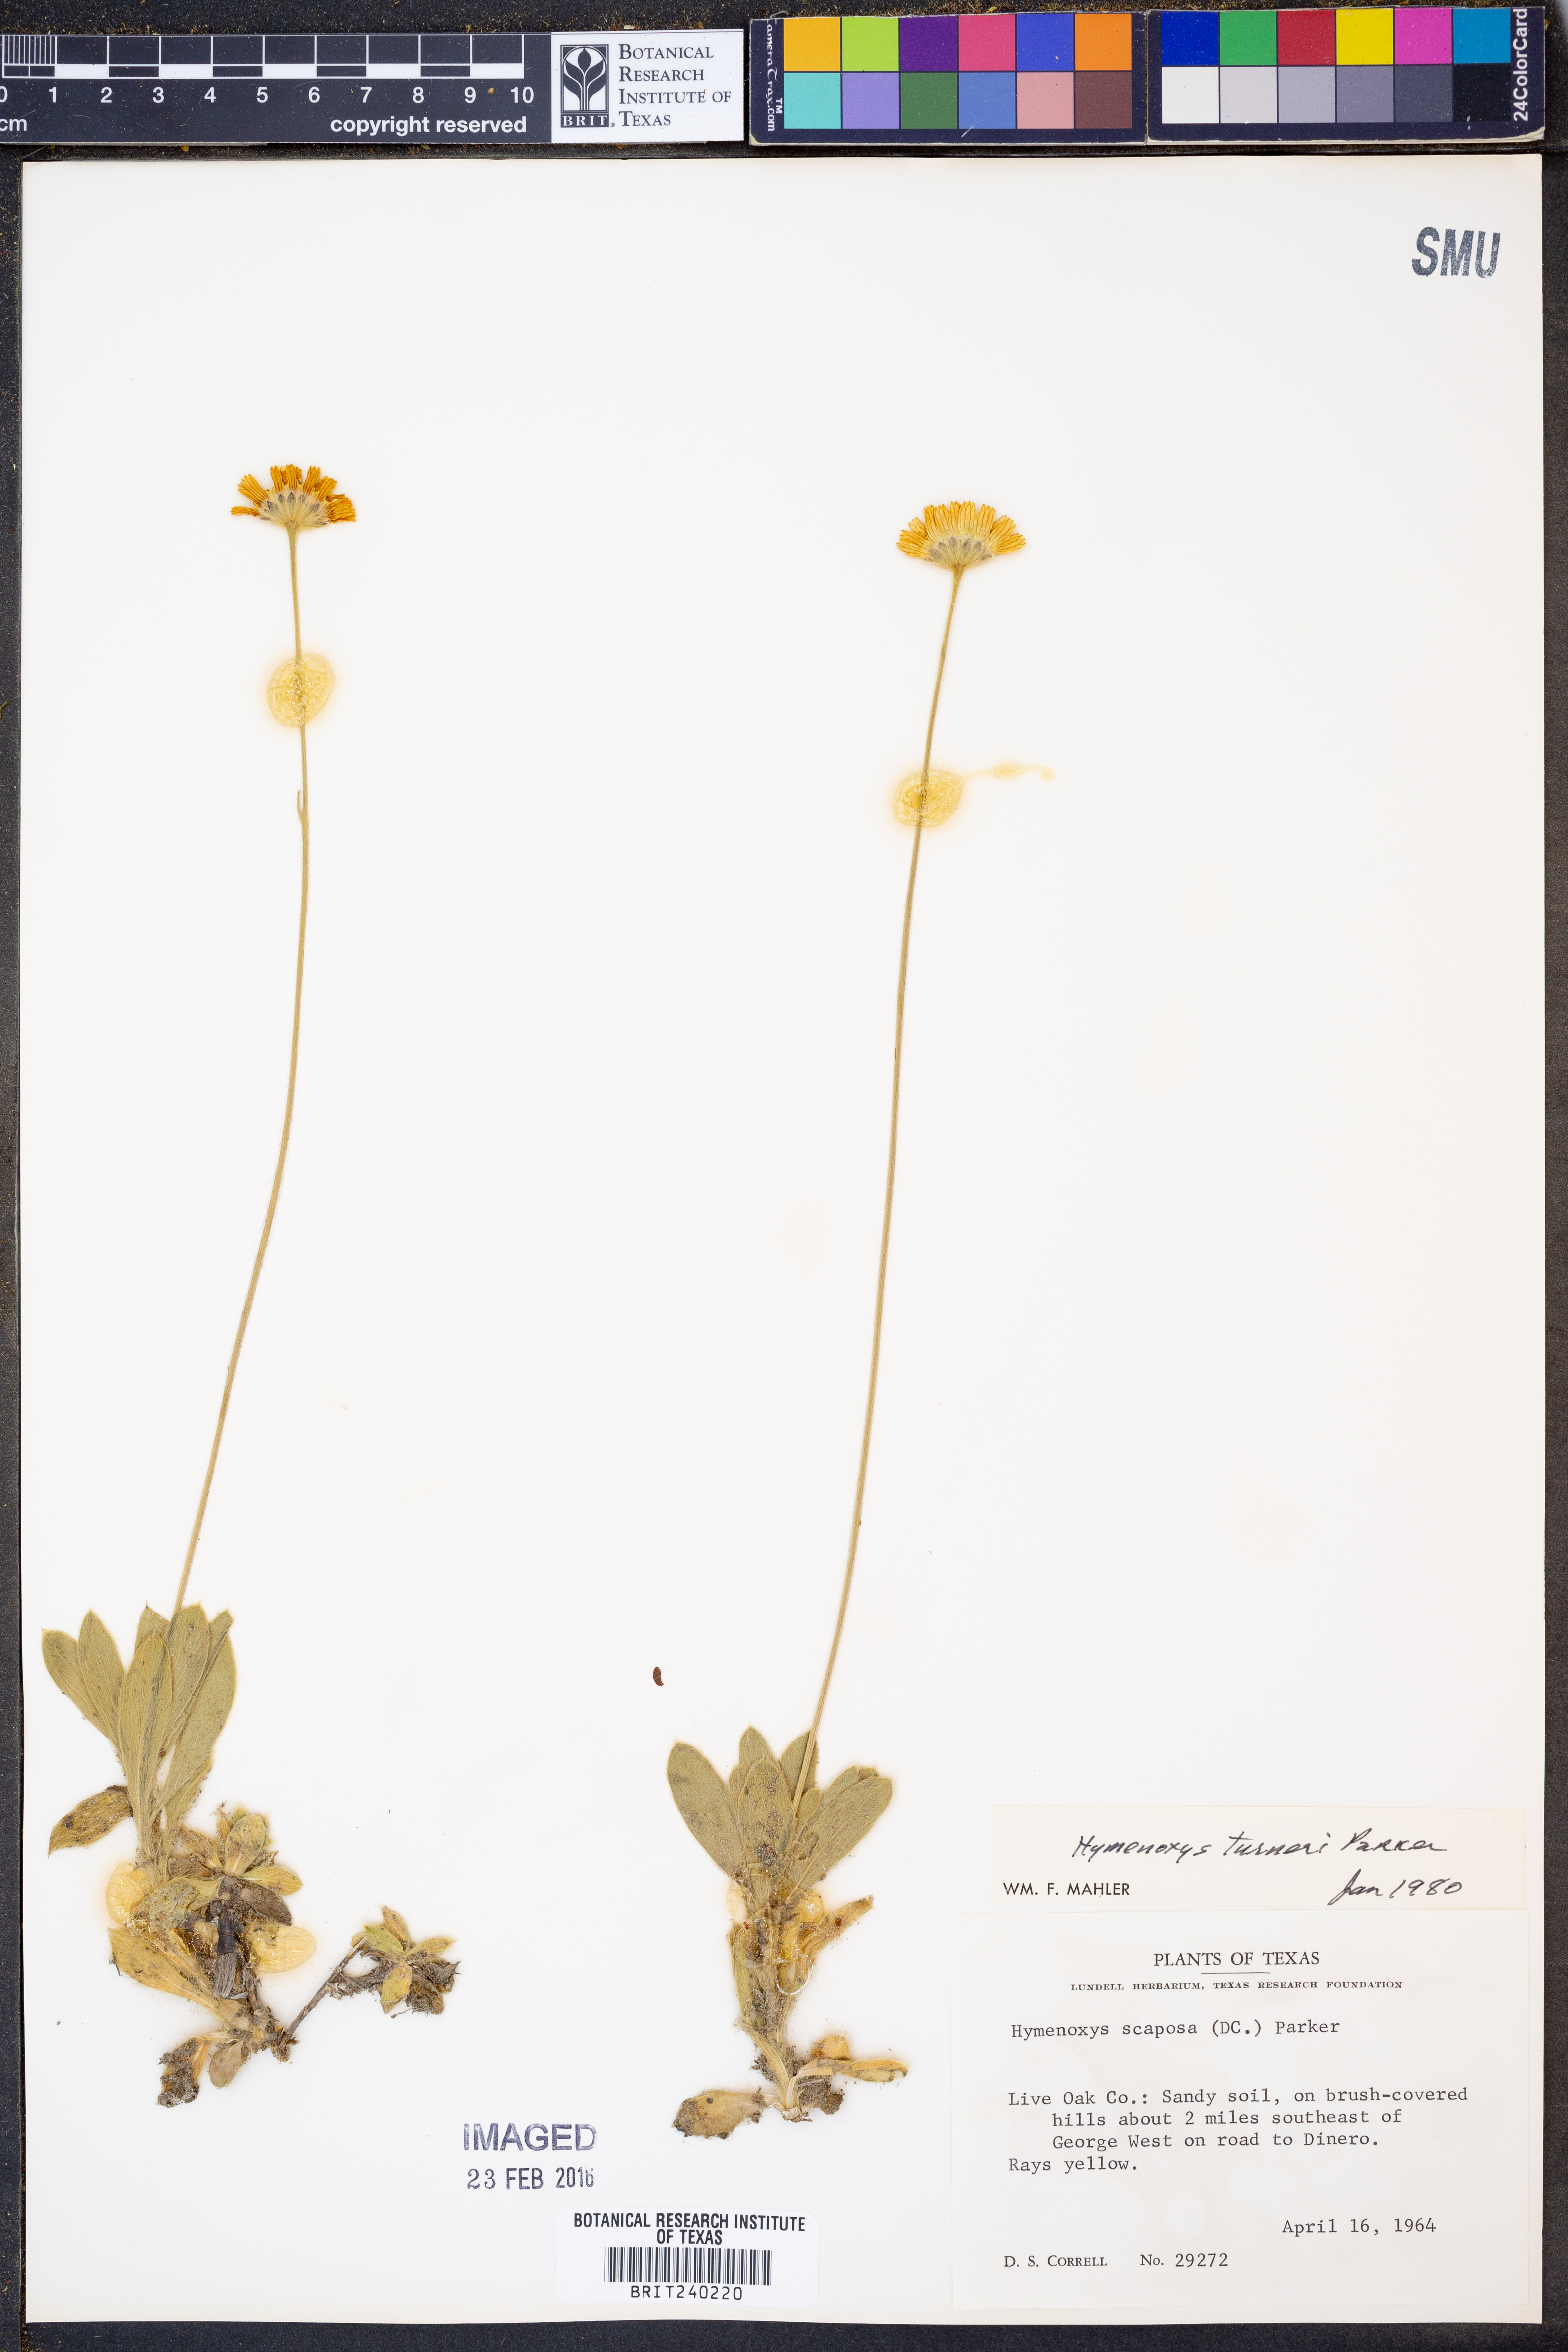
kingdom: Plantae
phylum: Tracheophyta
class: Magnoliopsida
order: Asterales
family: Asteraceae
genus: Tetraneuris
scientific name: Tetraneuris turneri
